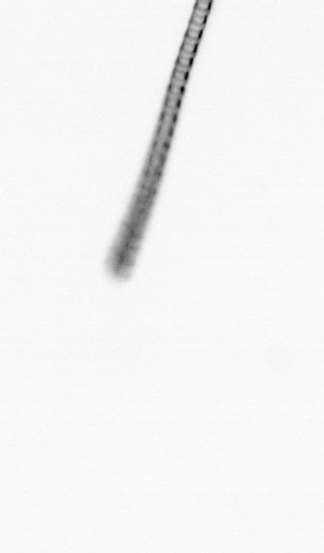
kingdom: Chromista
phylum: Ochrophyta
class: Bacillariophyceae
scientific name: Bacillariophyceae
